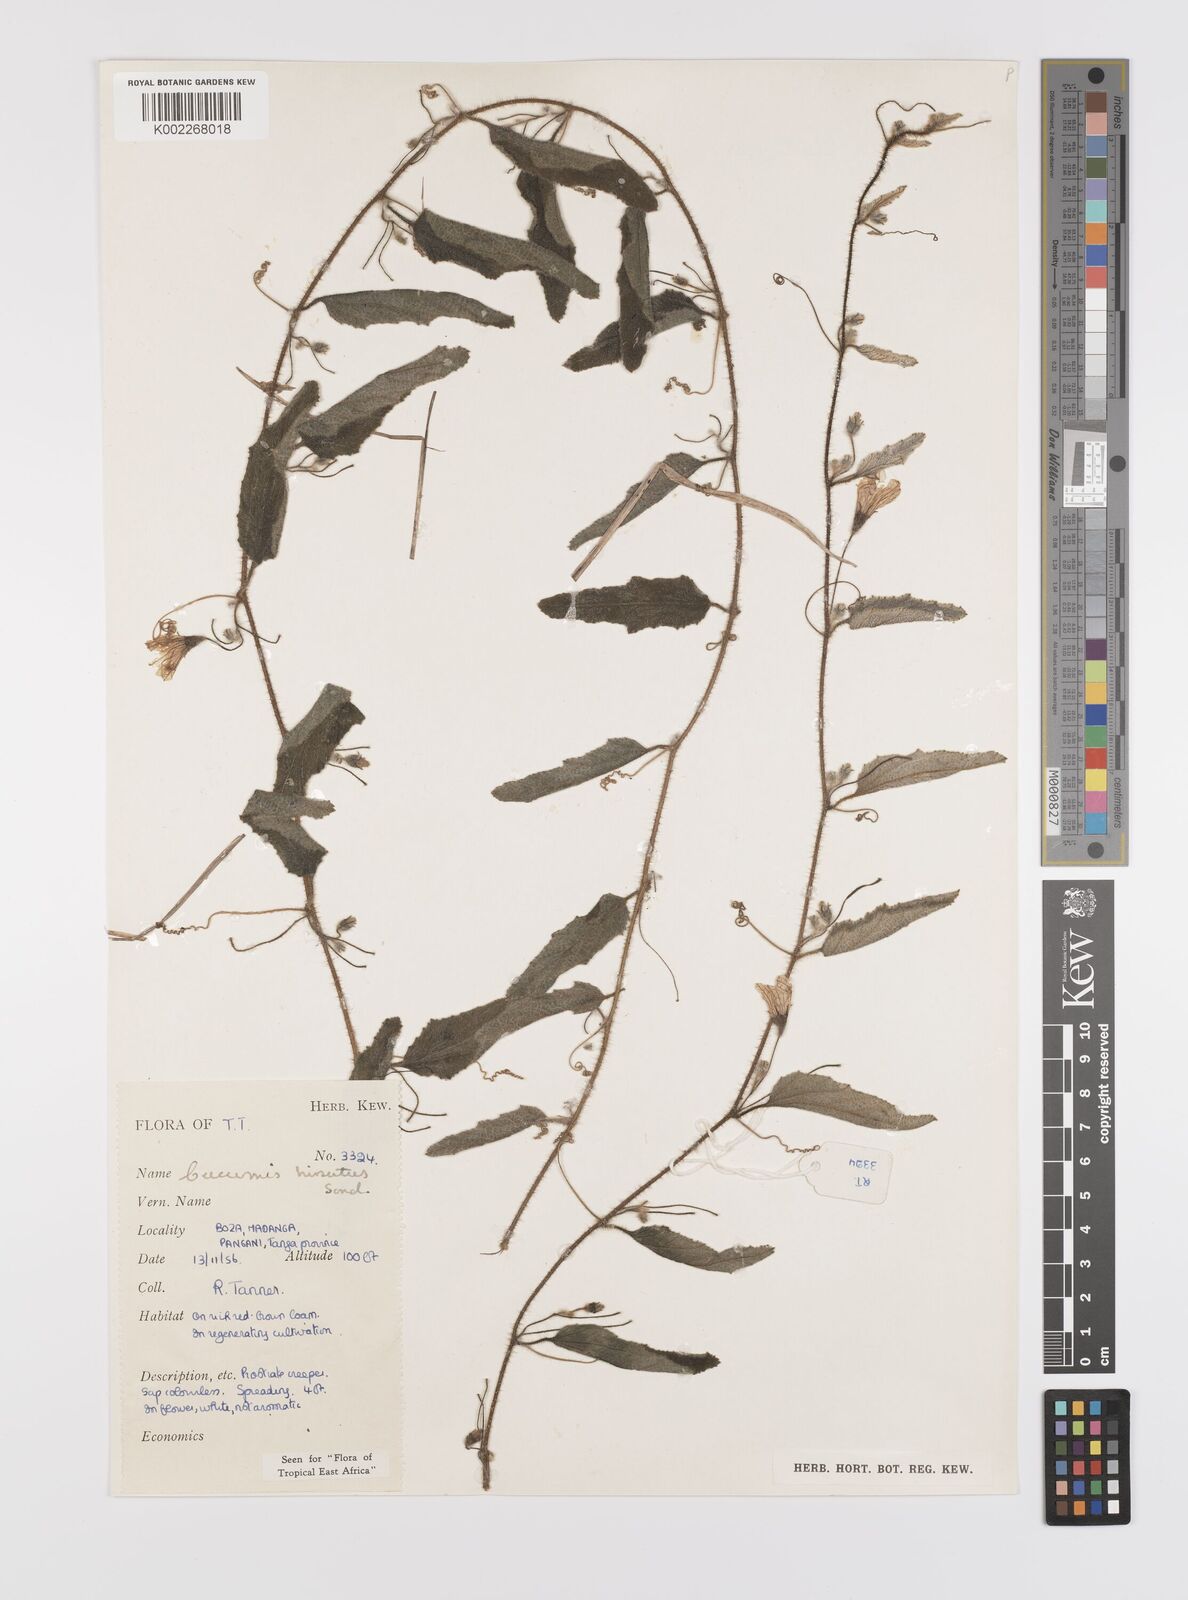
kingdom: Plantae
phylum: Tracheophyta
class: Magnoliopsida
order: Cucurbitales
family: Cucurbitaceae
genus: Cucumis
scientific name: Cucumis hirsutus
